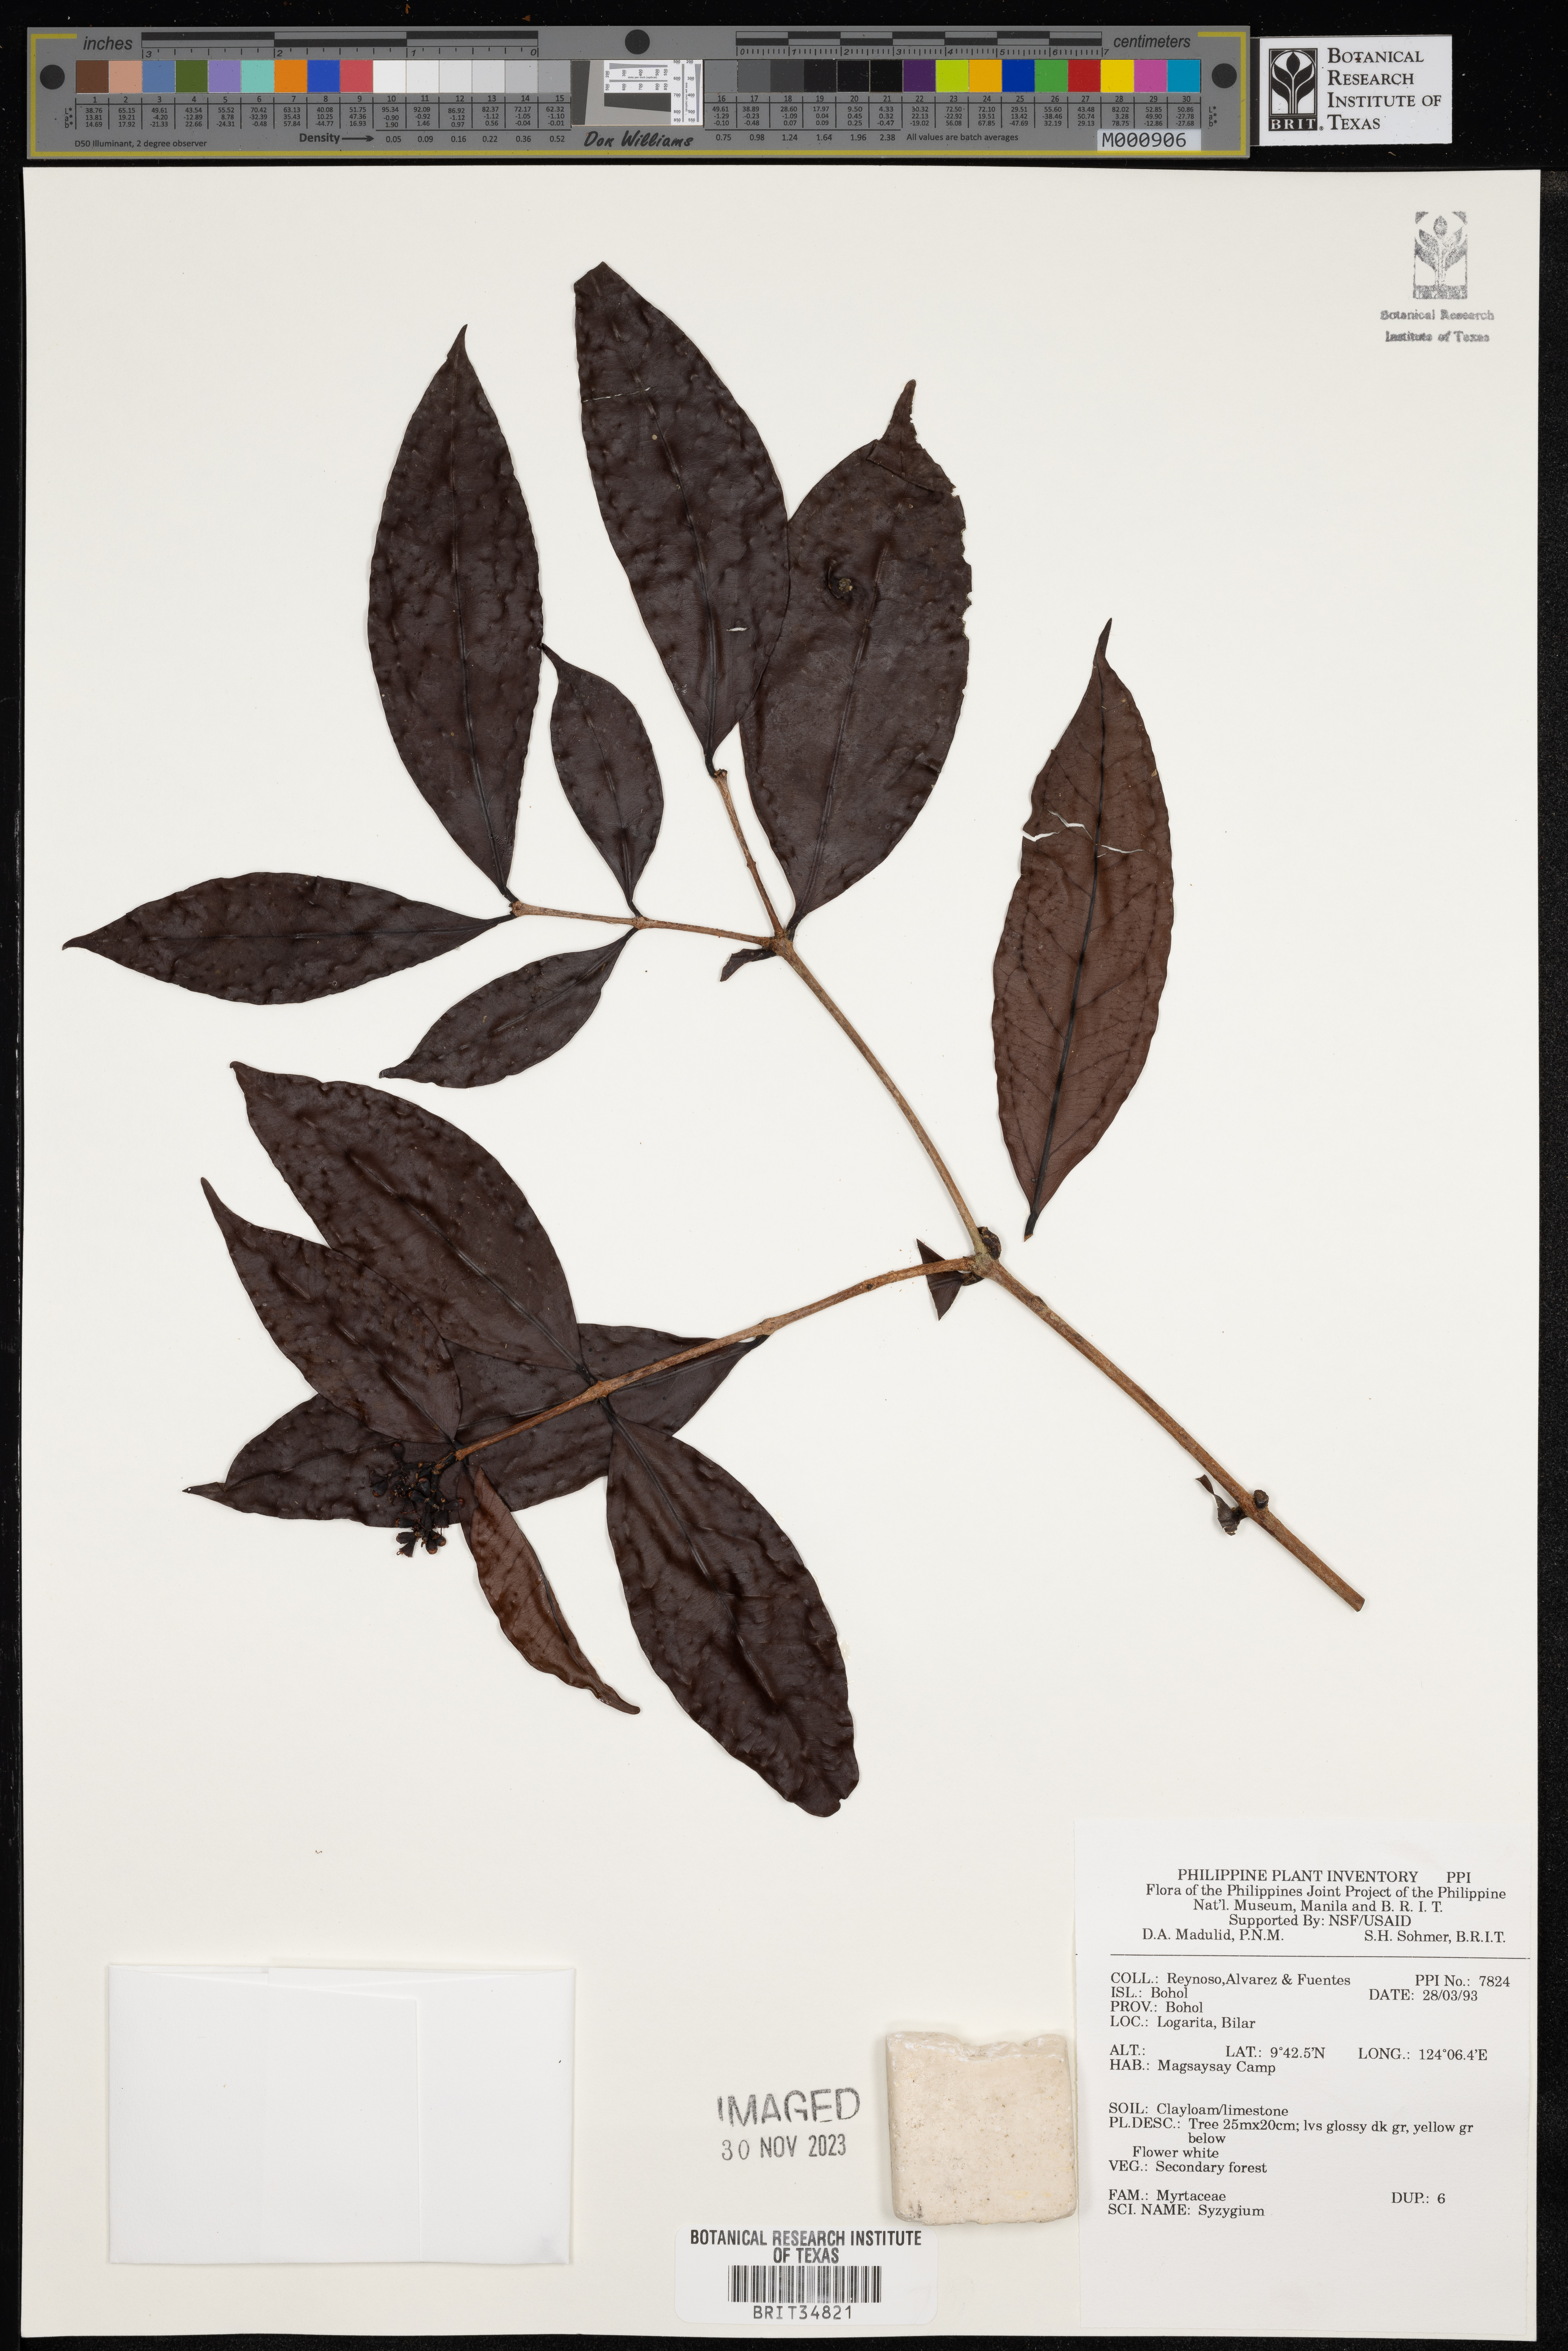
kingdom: Plantae
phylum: Tracheophyta
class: Magnoliopsida
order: Myrtales
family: Myrtaceae
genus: Syzygium
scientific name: Syzygium
